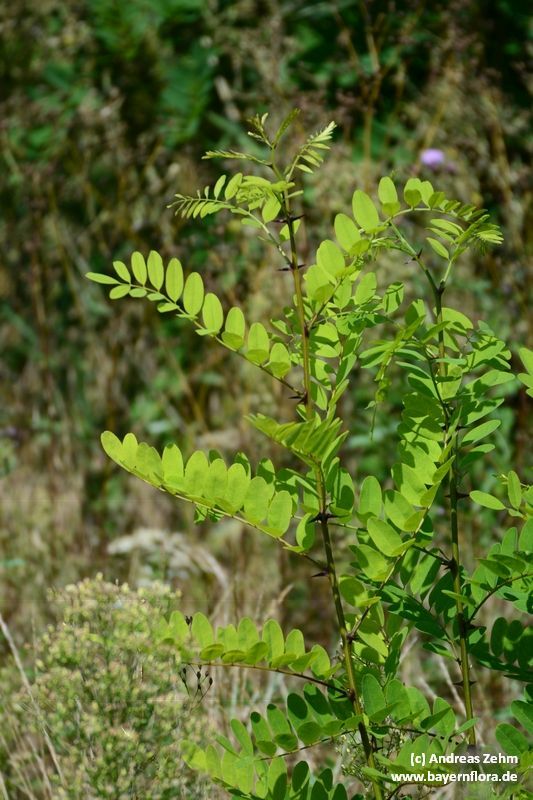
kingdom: Plantae
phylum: Tracheophyta
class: Magnoliopsida
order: Fabales
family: Fabaceae
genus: Robinia
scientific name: Robinia pseudoacacia
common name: Black locust
